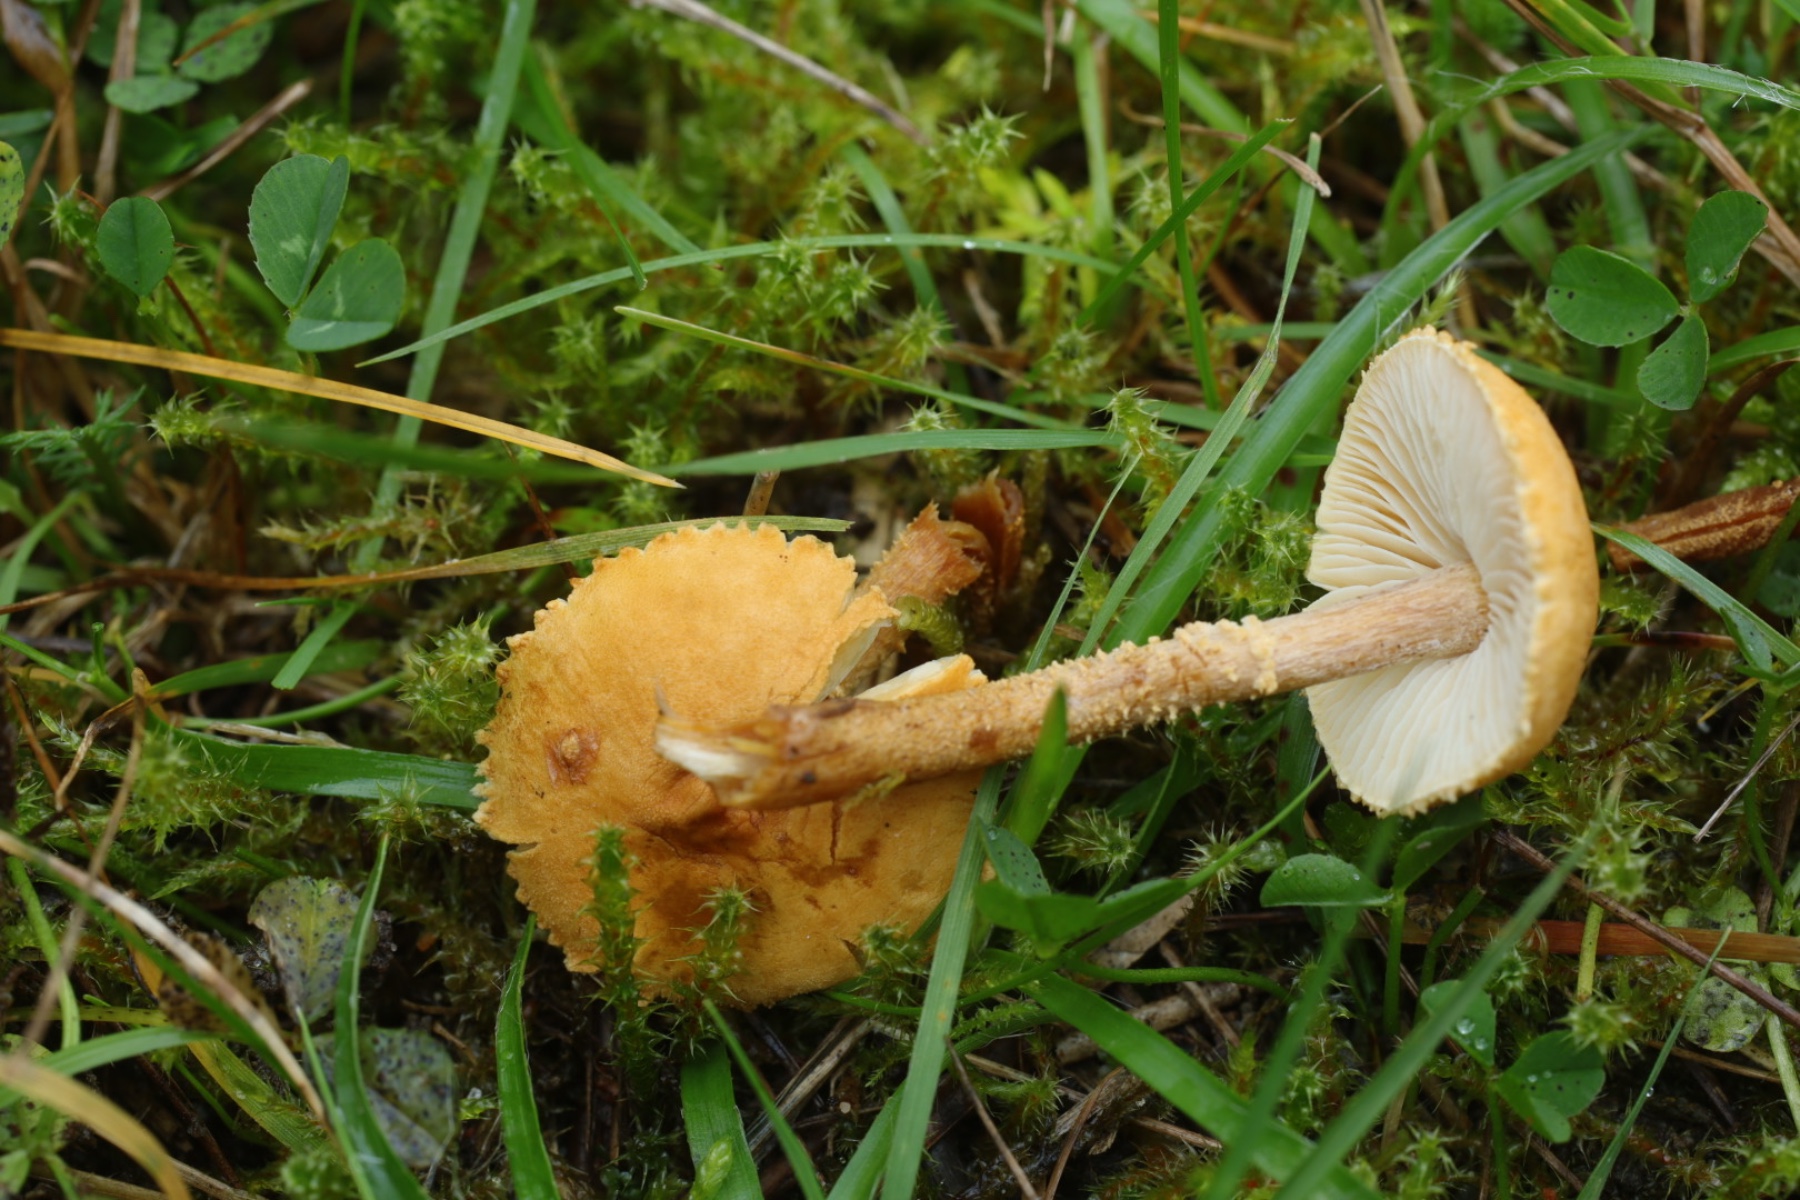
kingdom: Fungi
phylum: Basidiomycota
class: Agaricomycetes
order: Agaricales
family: Tricholomataceae
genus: Cystoderma
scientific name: Cystoderma amianthinum
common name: okkergul grynhat
